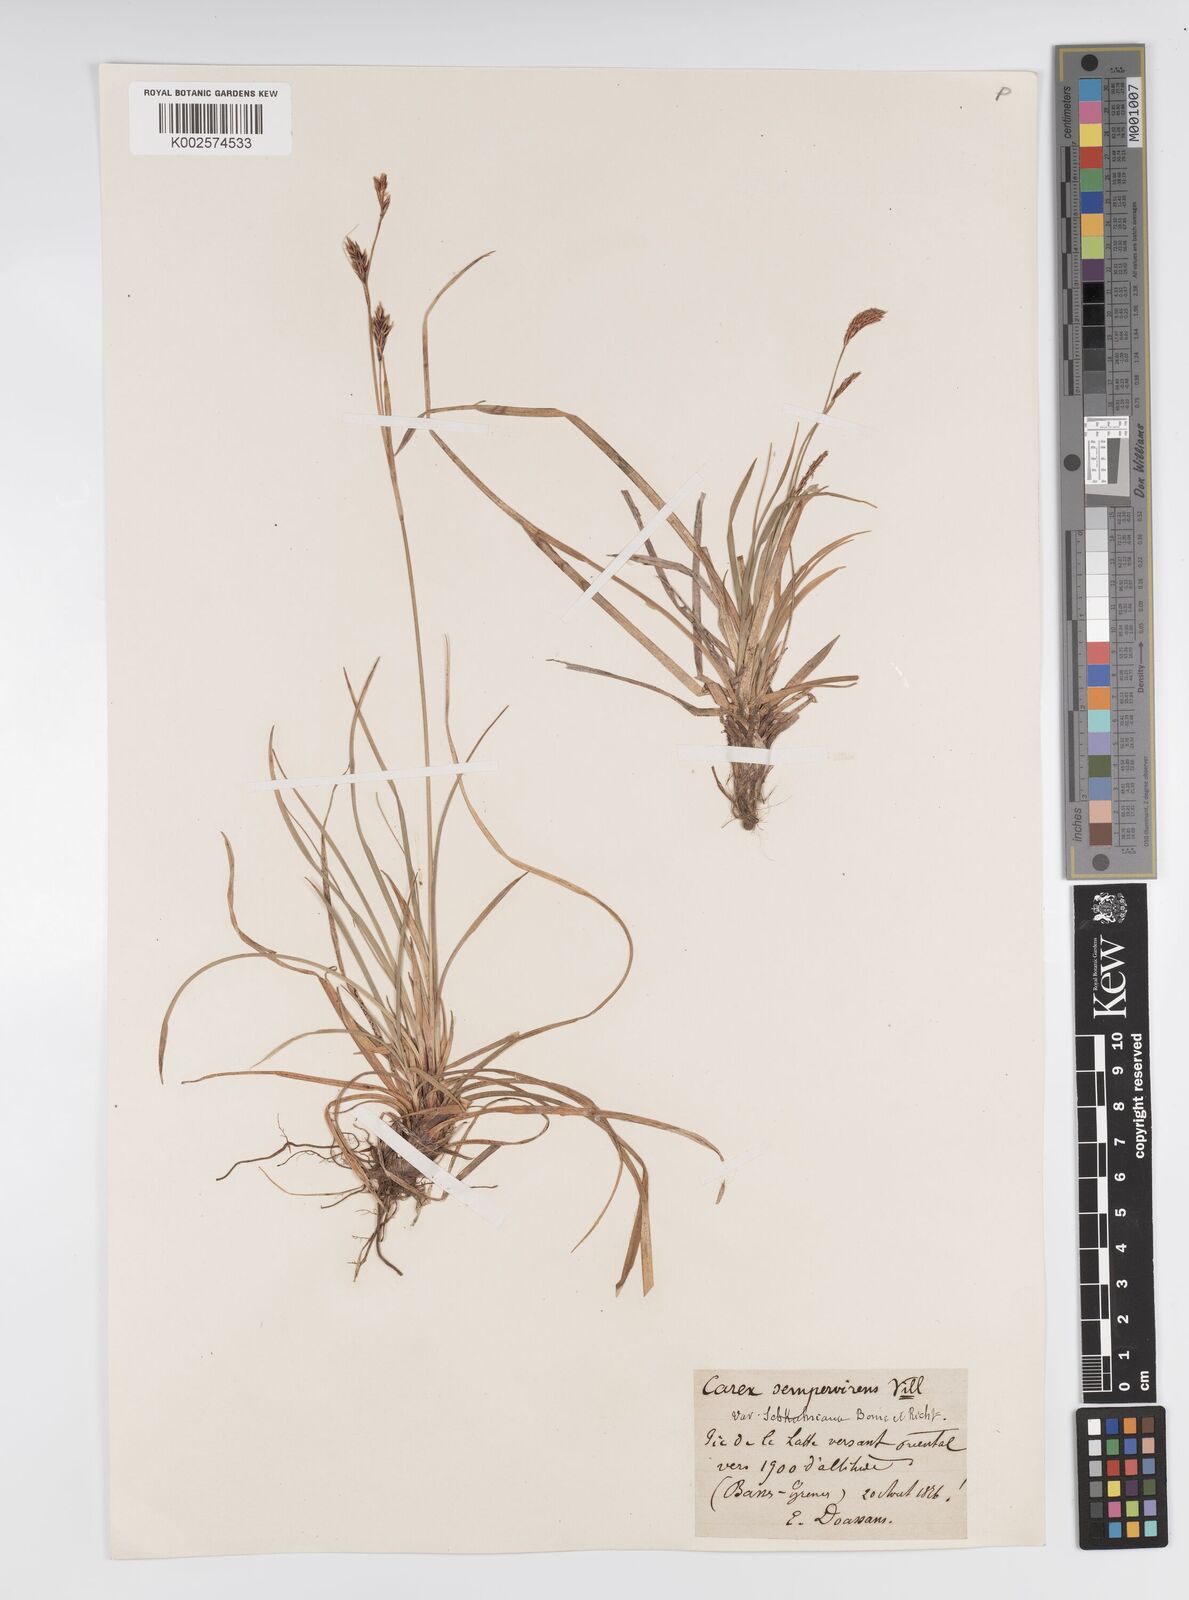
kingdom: Plantae
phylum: Tracheophyta
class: Liliopsida
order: Poales
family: Cyperaceae
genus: Carex
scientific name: Carex sempervirens
